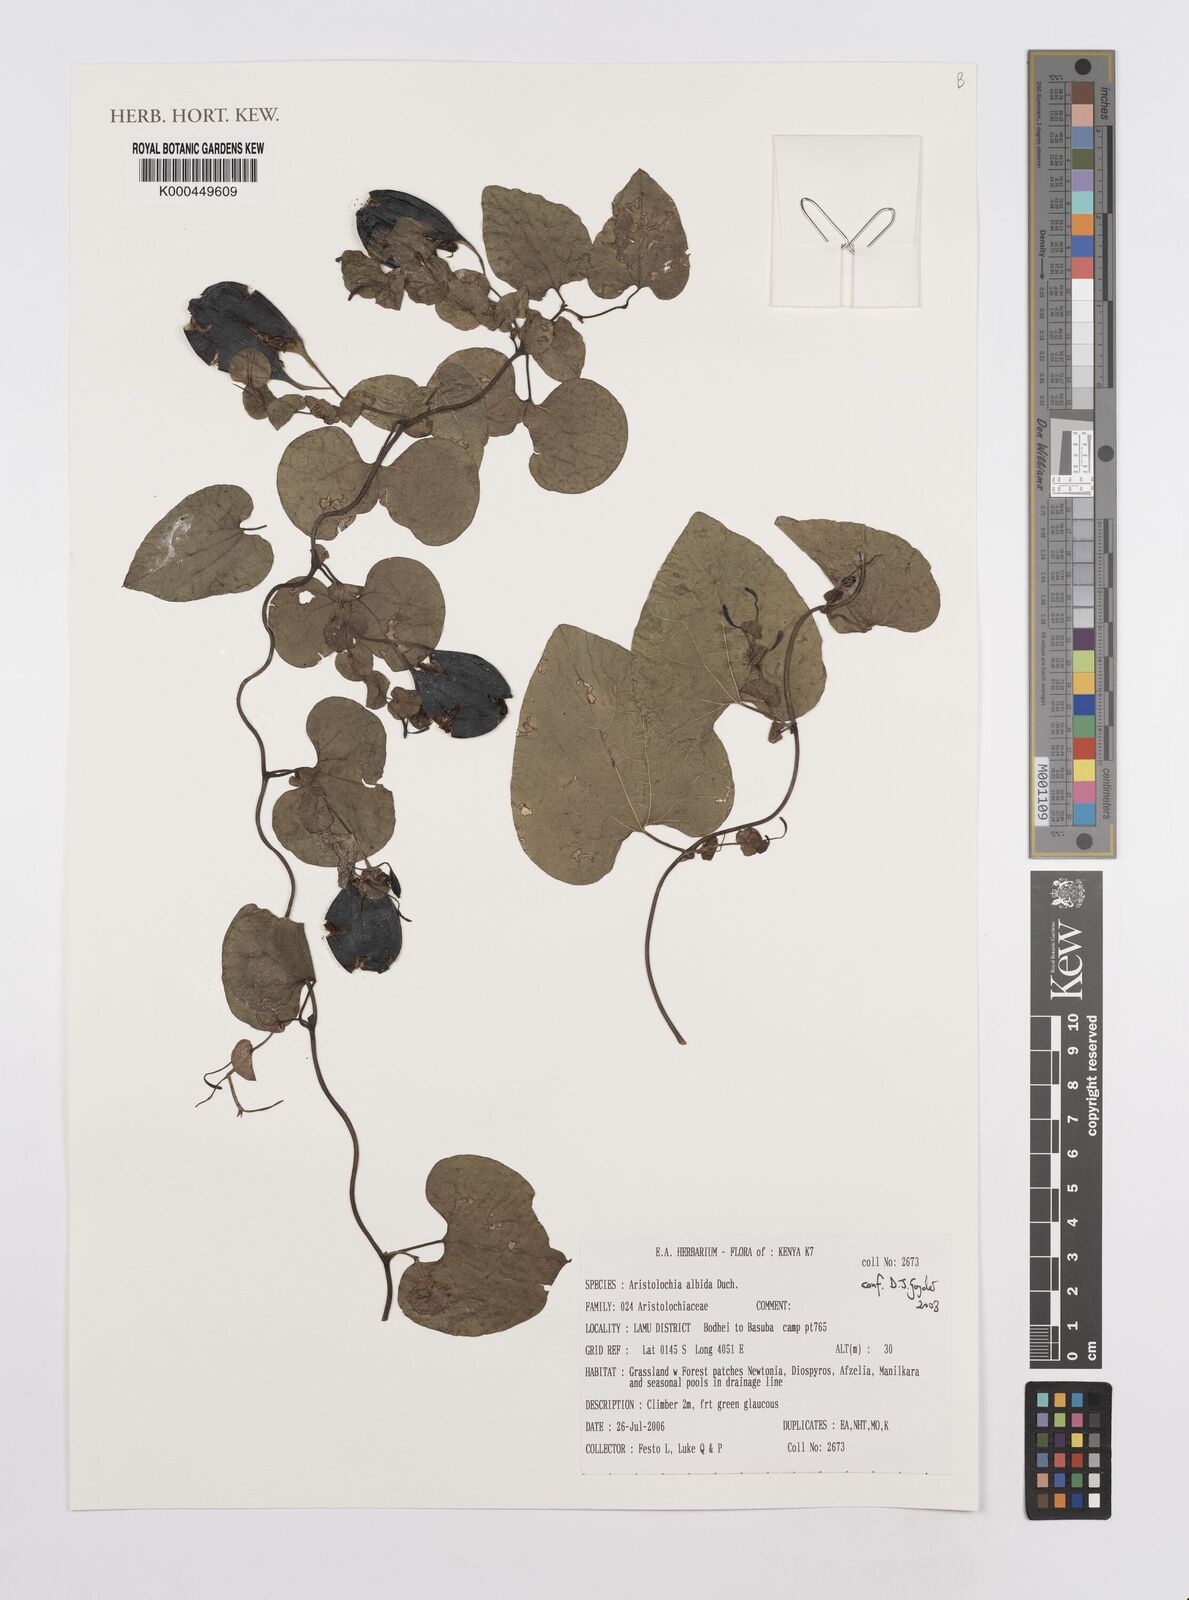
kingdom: Plantae
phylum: Tracheophyta
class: Magnoliopsida
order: Piperales
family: Aristolochiaceae
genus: Aristolochia
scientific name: Aristolochia albida
